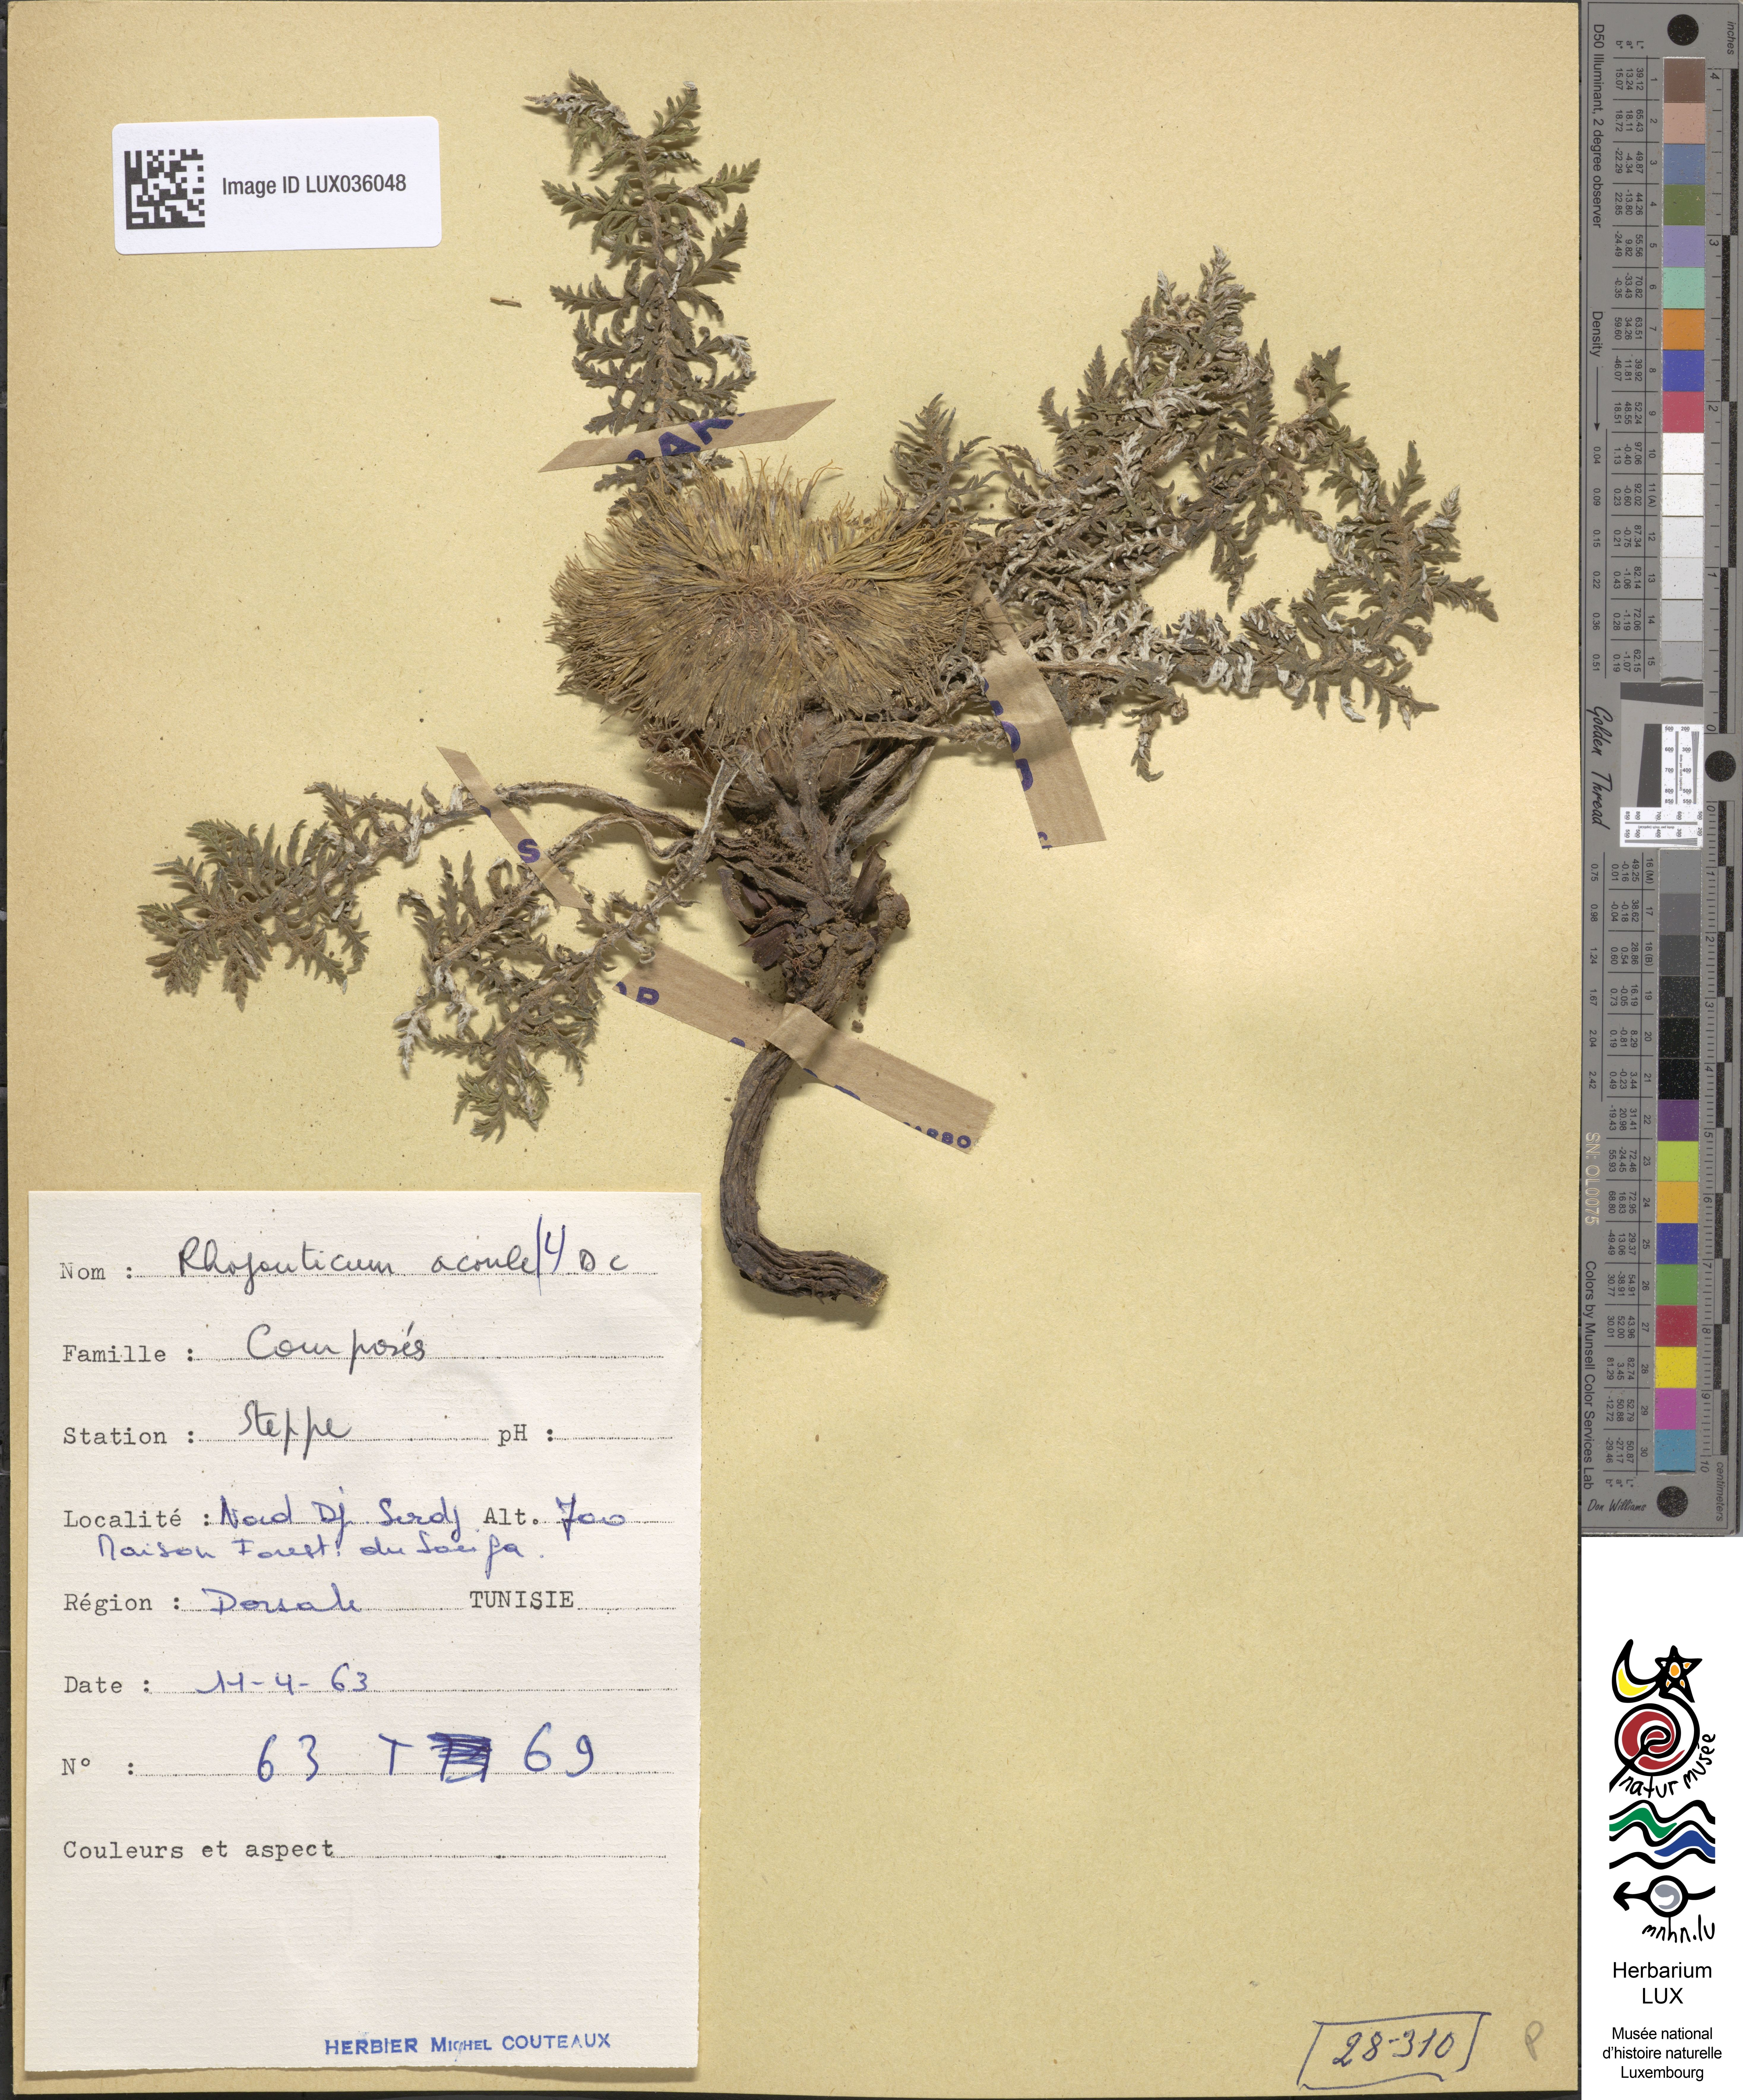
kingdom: Plantae
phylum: Tracheophyta
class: Magnoliopsida
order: Asterales
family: Asteraceae
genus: Leuzea
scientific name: Leuzea acaulis
